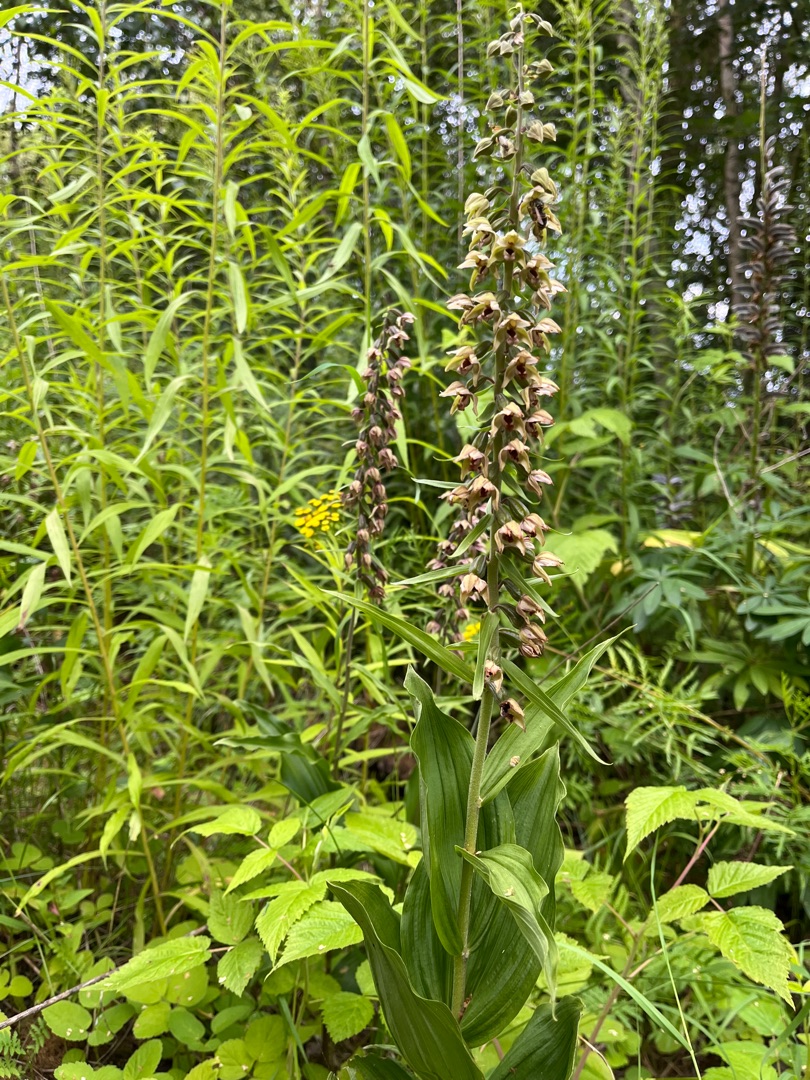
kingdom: Plantae
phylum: Tracheophyta
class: Liliopsida
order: Asparagales
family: Orchidaceae
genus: Epipactis
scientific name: Epipactis helleborine
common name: Skov-hullæbe
